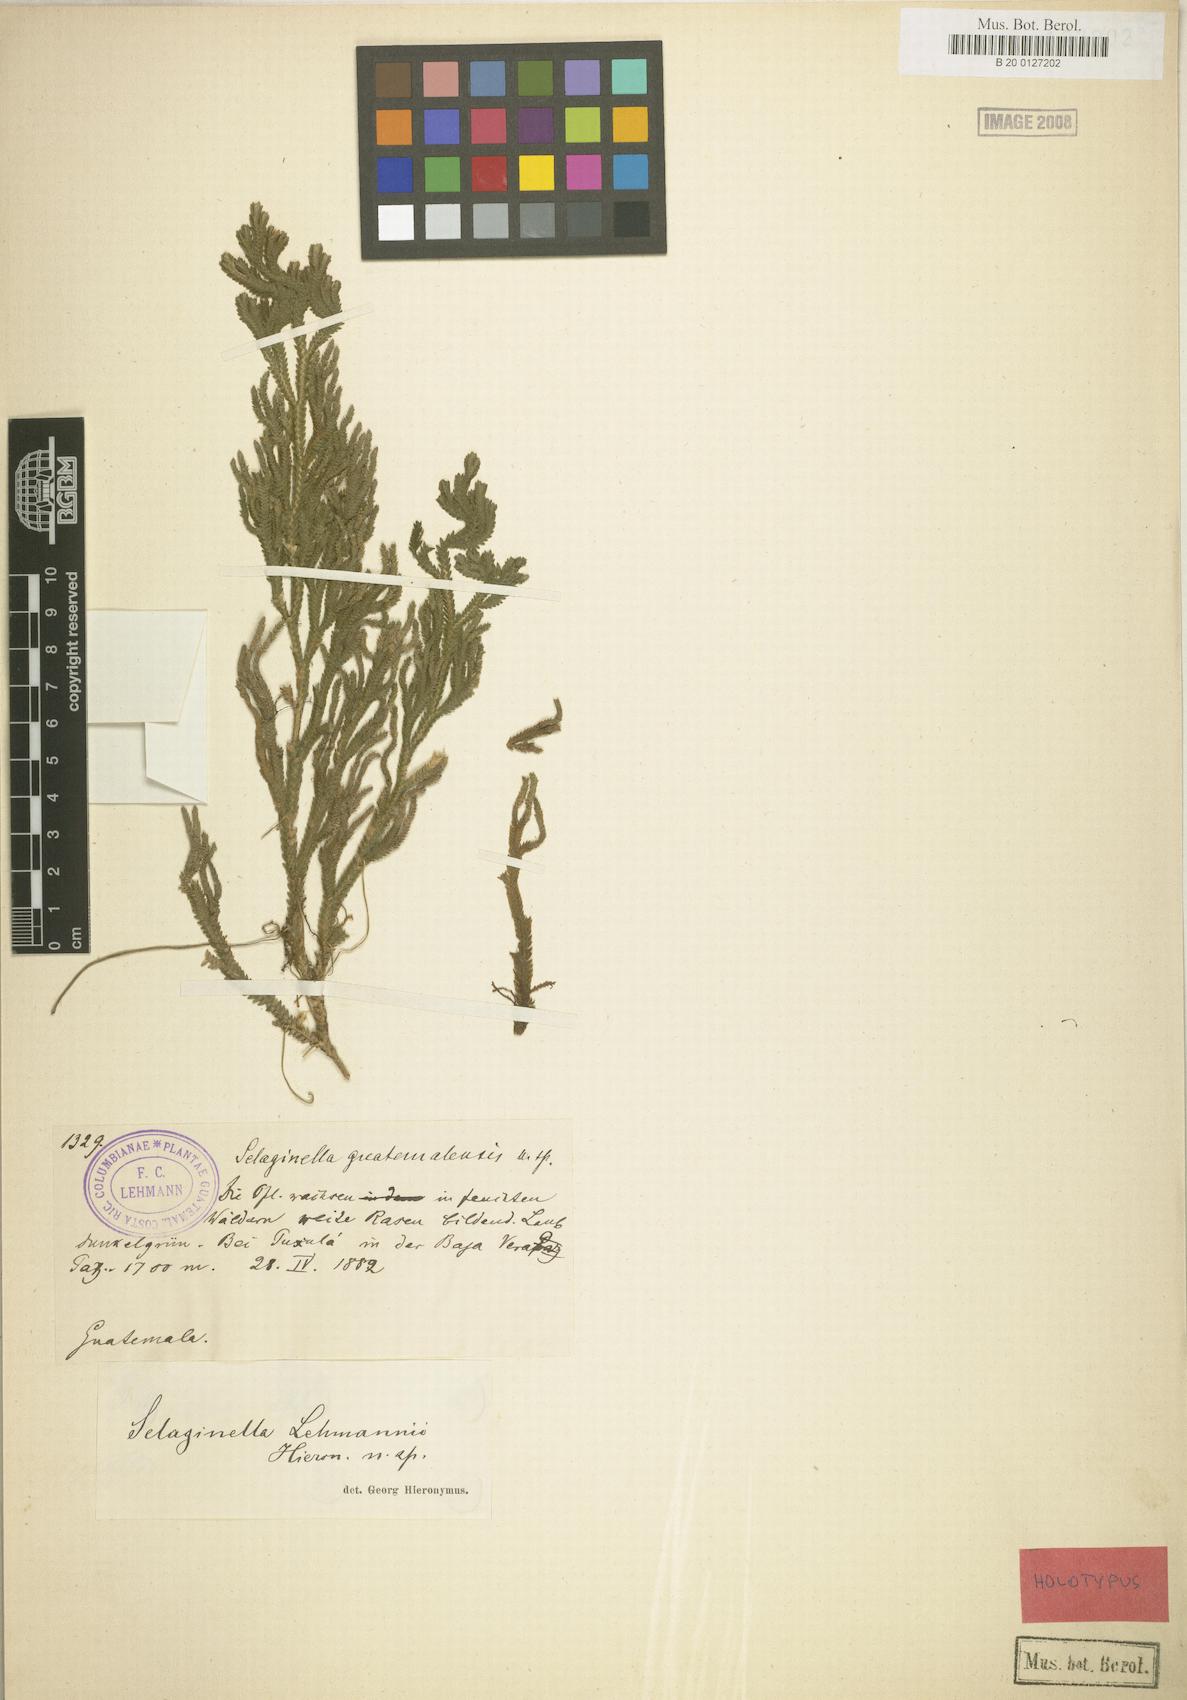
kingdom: Plantae
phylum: Tracheophyta
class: Lycopodiopsida
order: Selaginellales
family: Selaginellaceae
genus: Selaginella
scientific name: Selaginella guatemalensis
